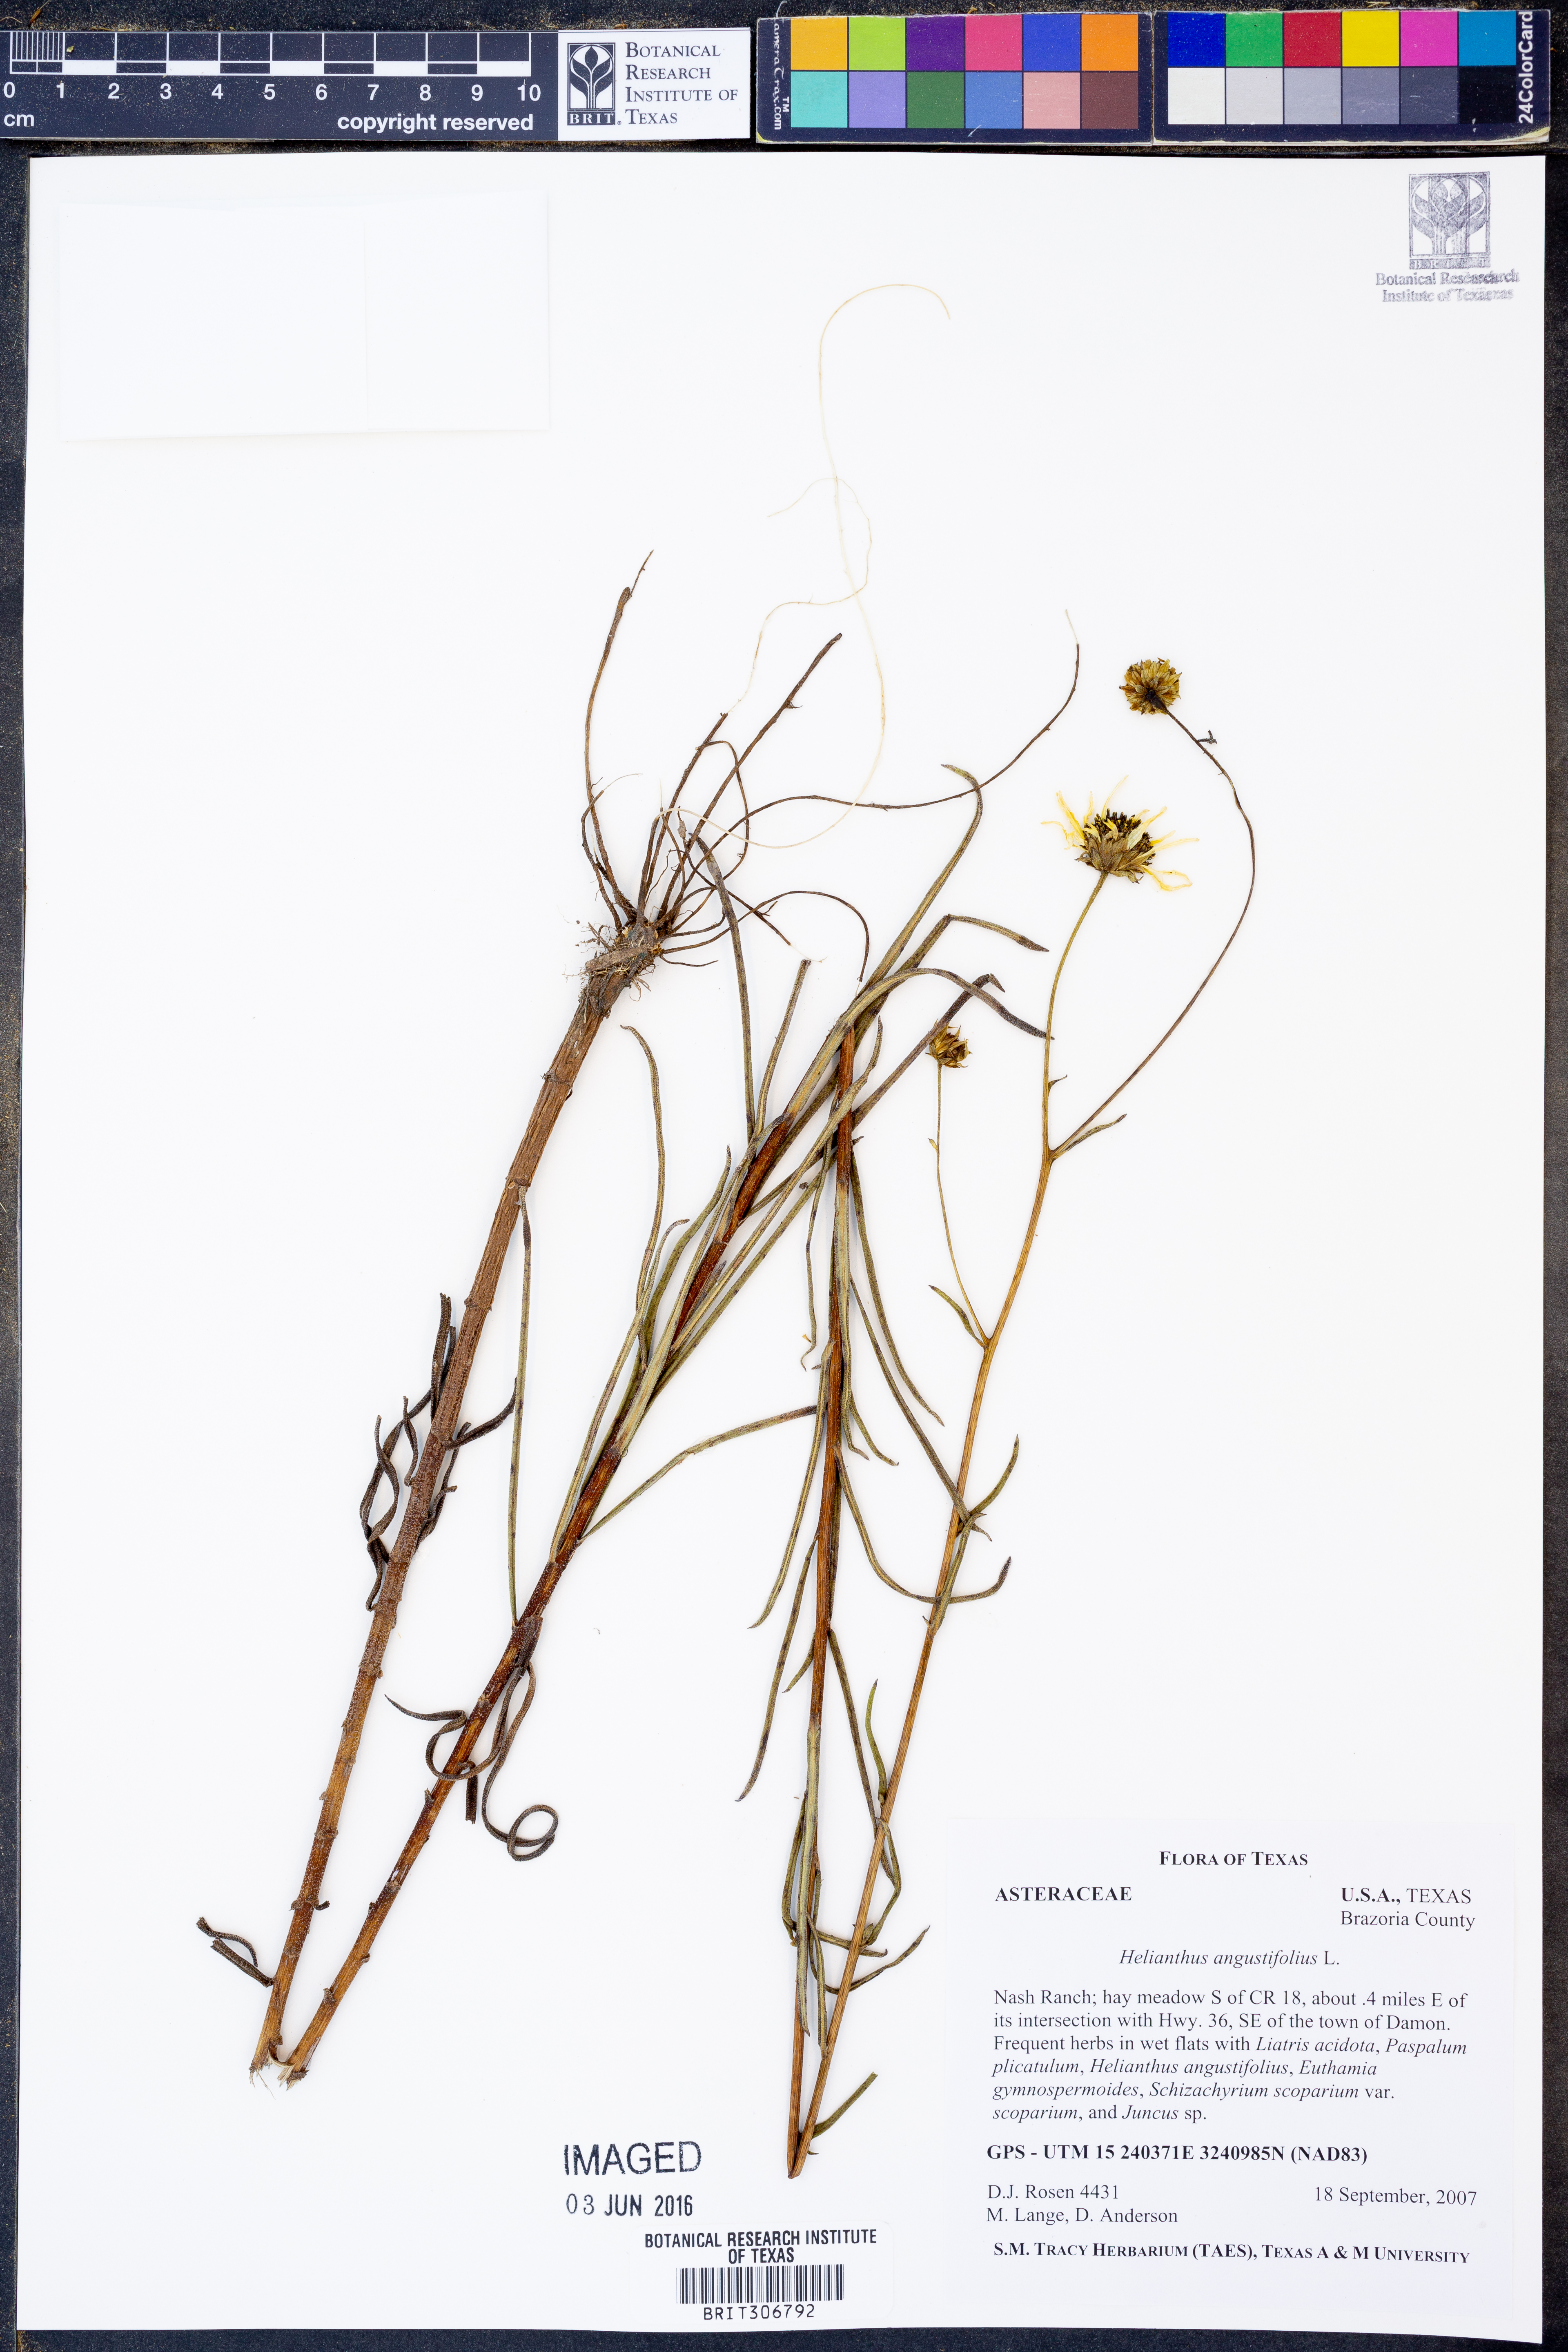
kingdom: Plantae
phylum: Tracheophyta
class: Magnoliopsida
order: Asterales
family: Asteraceae
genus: Helianthus
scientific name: Helianthus angustifolius
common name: Swamp sunflower
